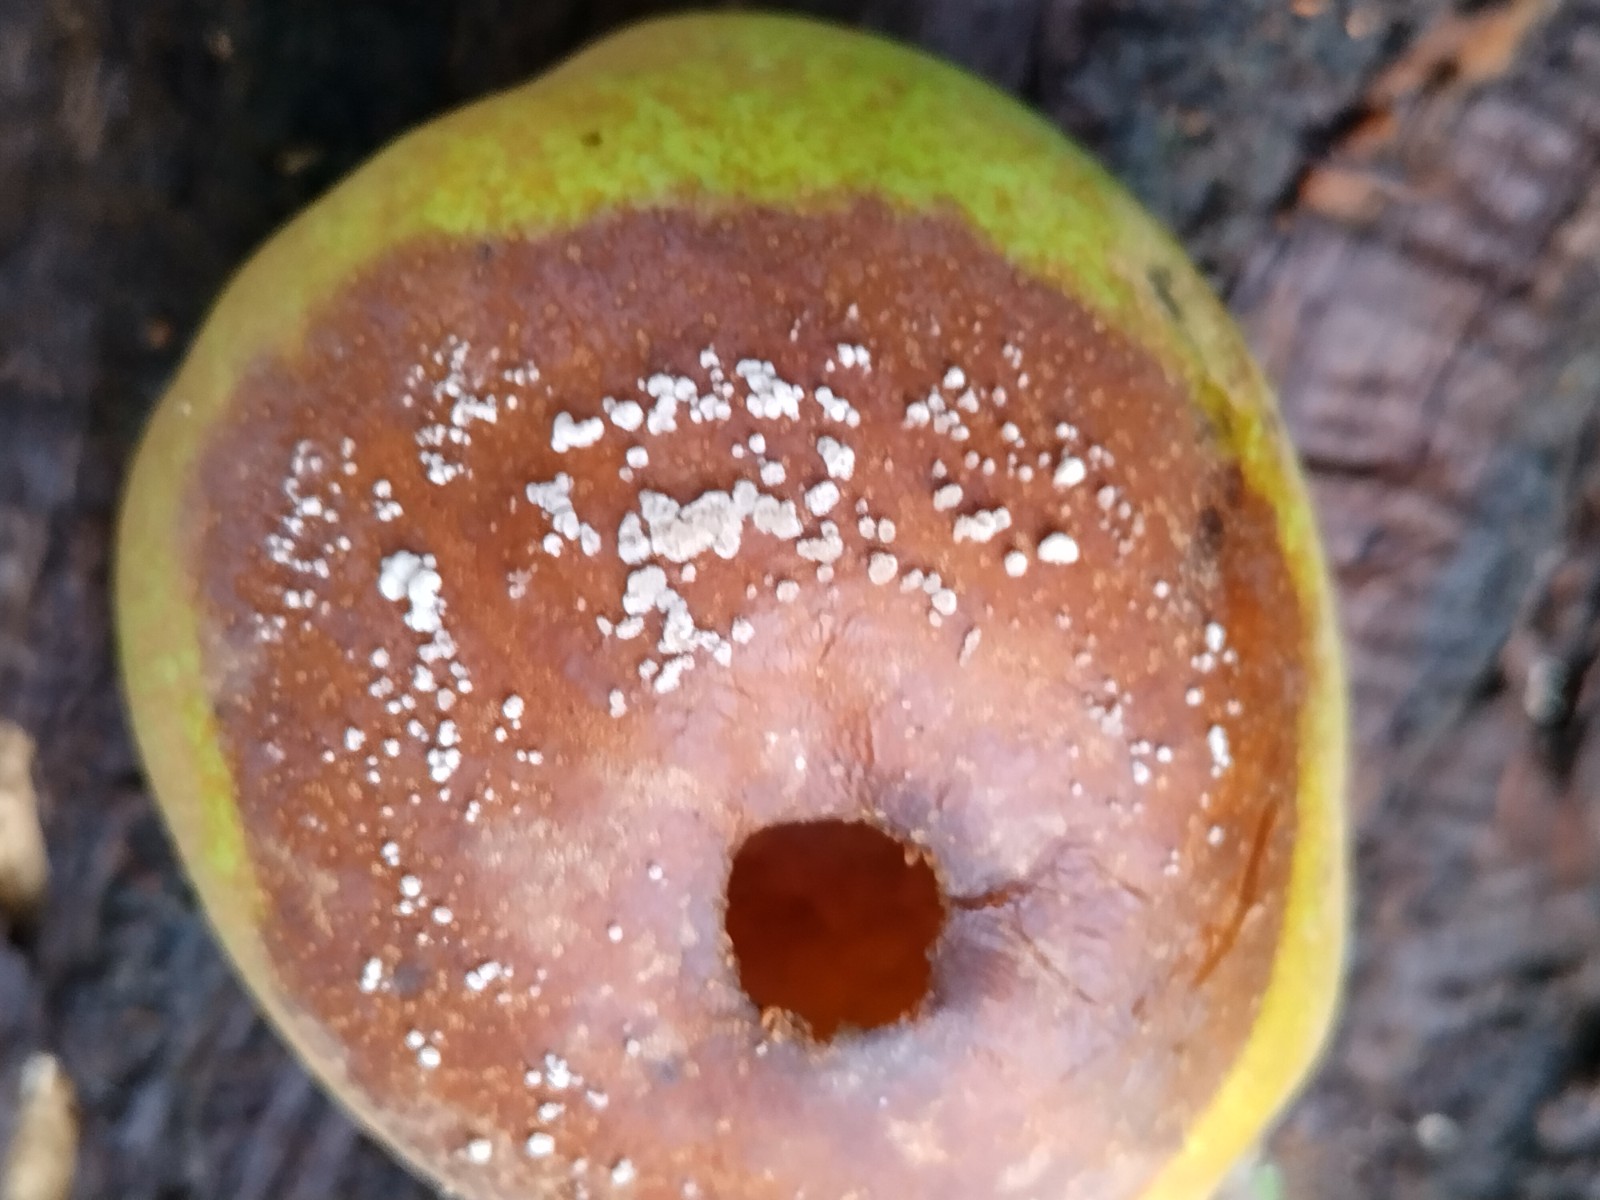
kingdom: Fungi
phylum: Ascomycota
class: Leotiomycetes
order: Helotiales
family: Sclerotiniaceae
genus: Monilinia
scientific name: Monilinia fructigena
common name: æble-knoldskive
